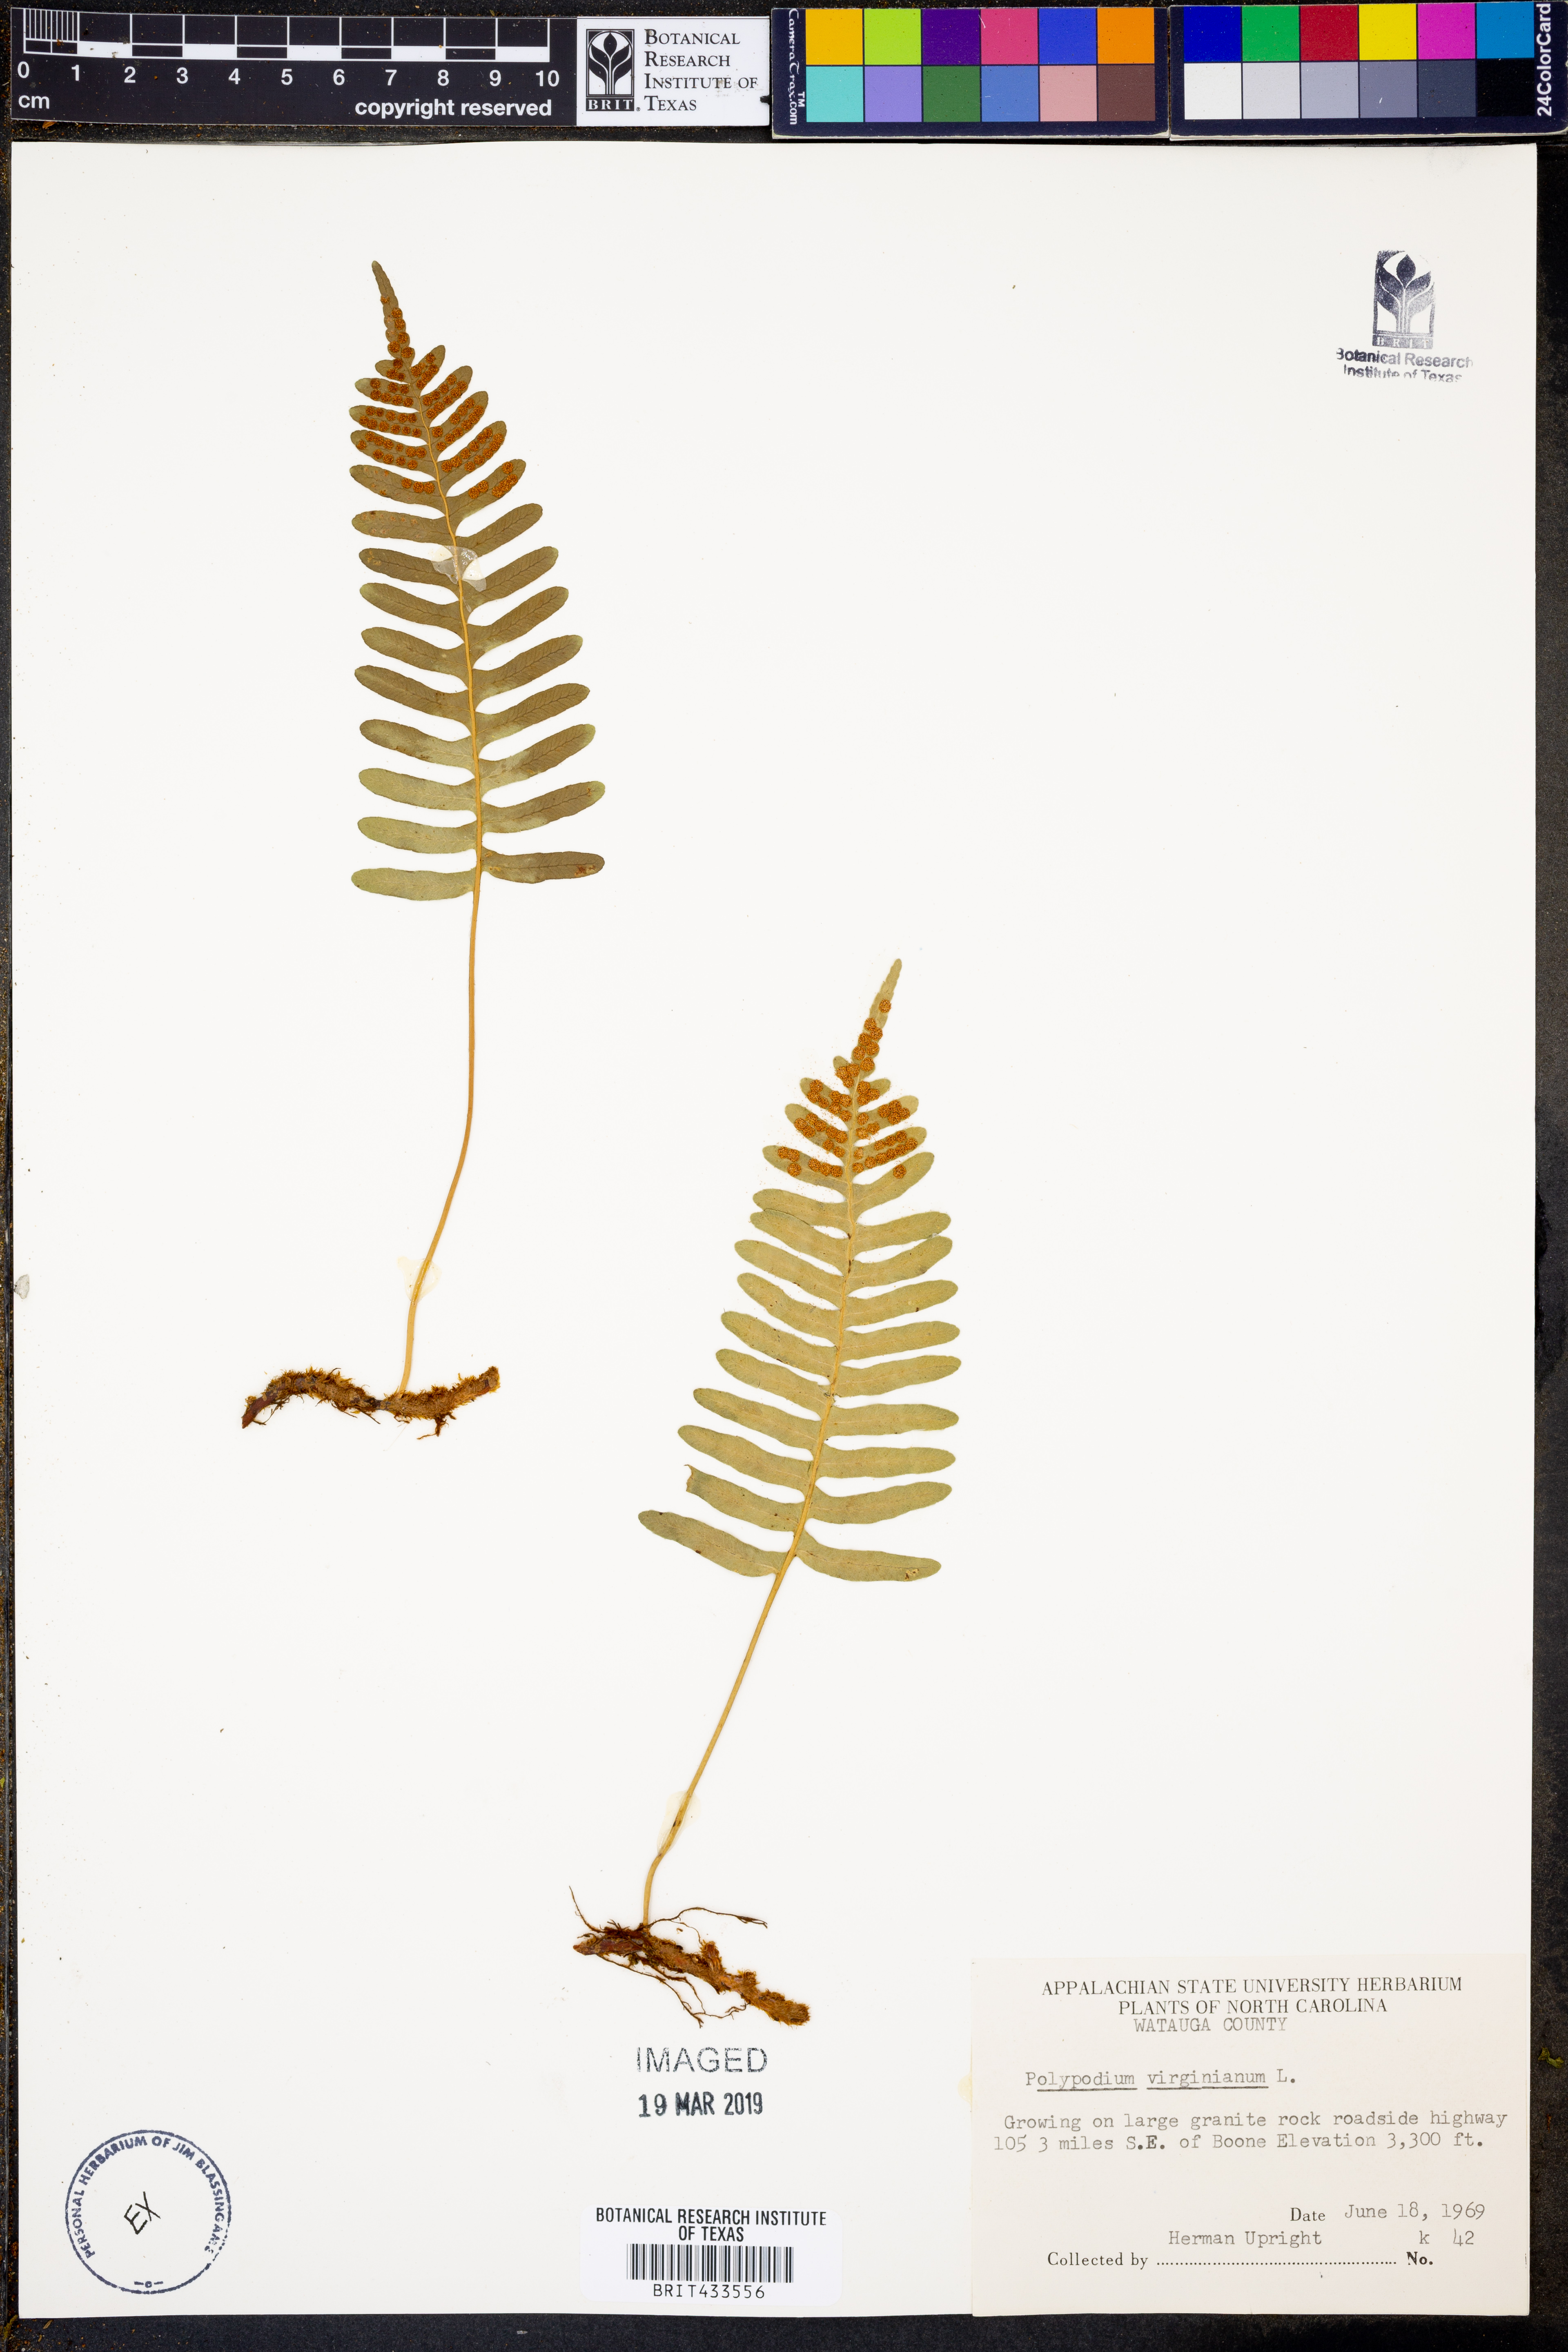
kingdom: Plantae
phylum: Tracheophyta
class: Polypodiopsida
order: Polypodiales
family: Polypodiaceae
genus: Polypodium
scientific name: Polypodium virginianum
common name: American wall fern
